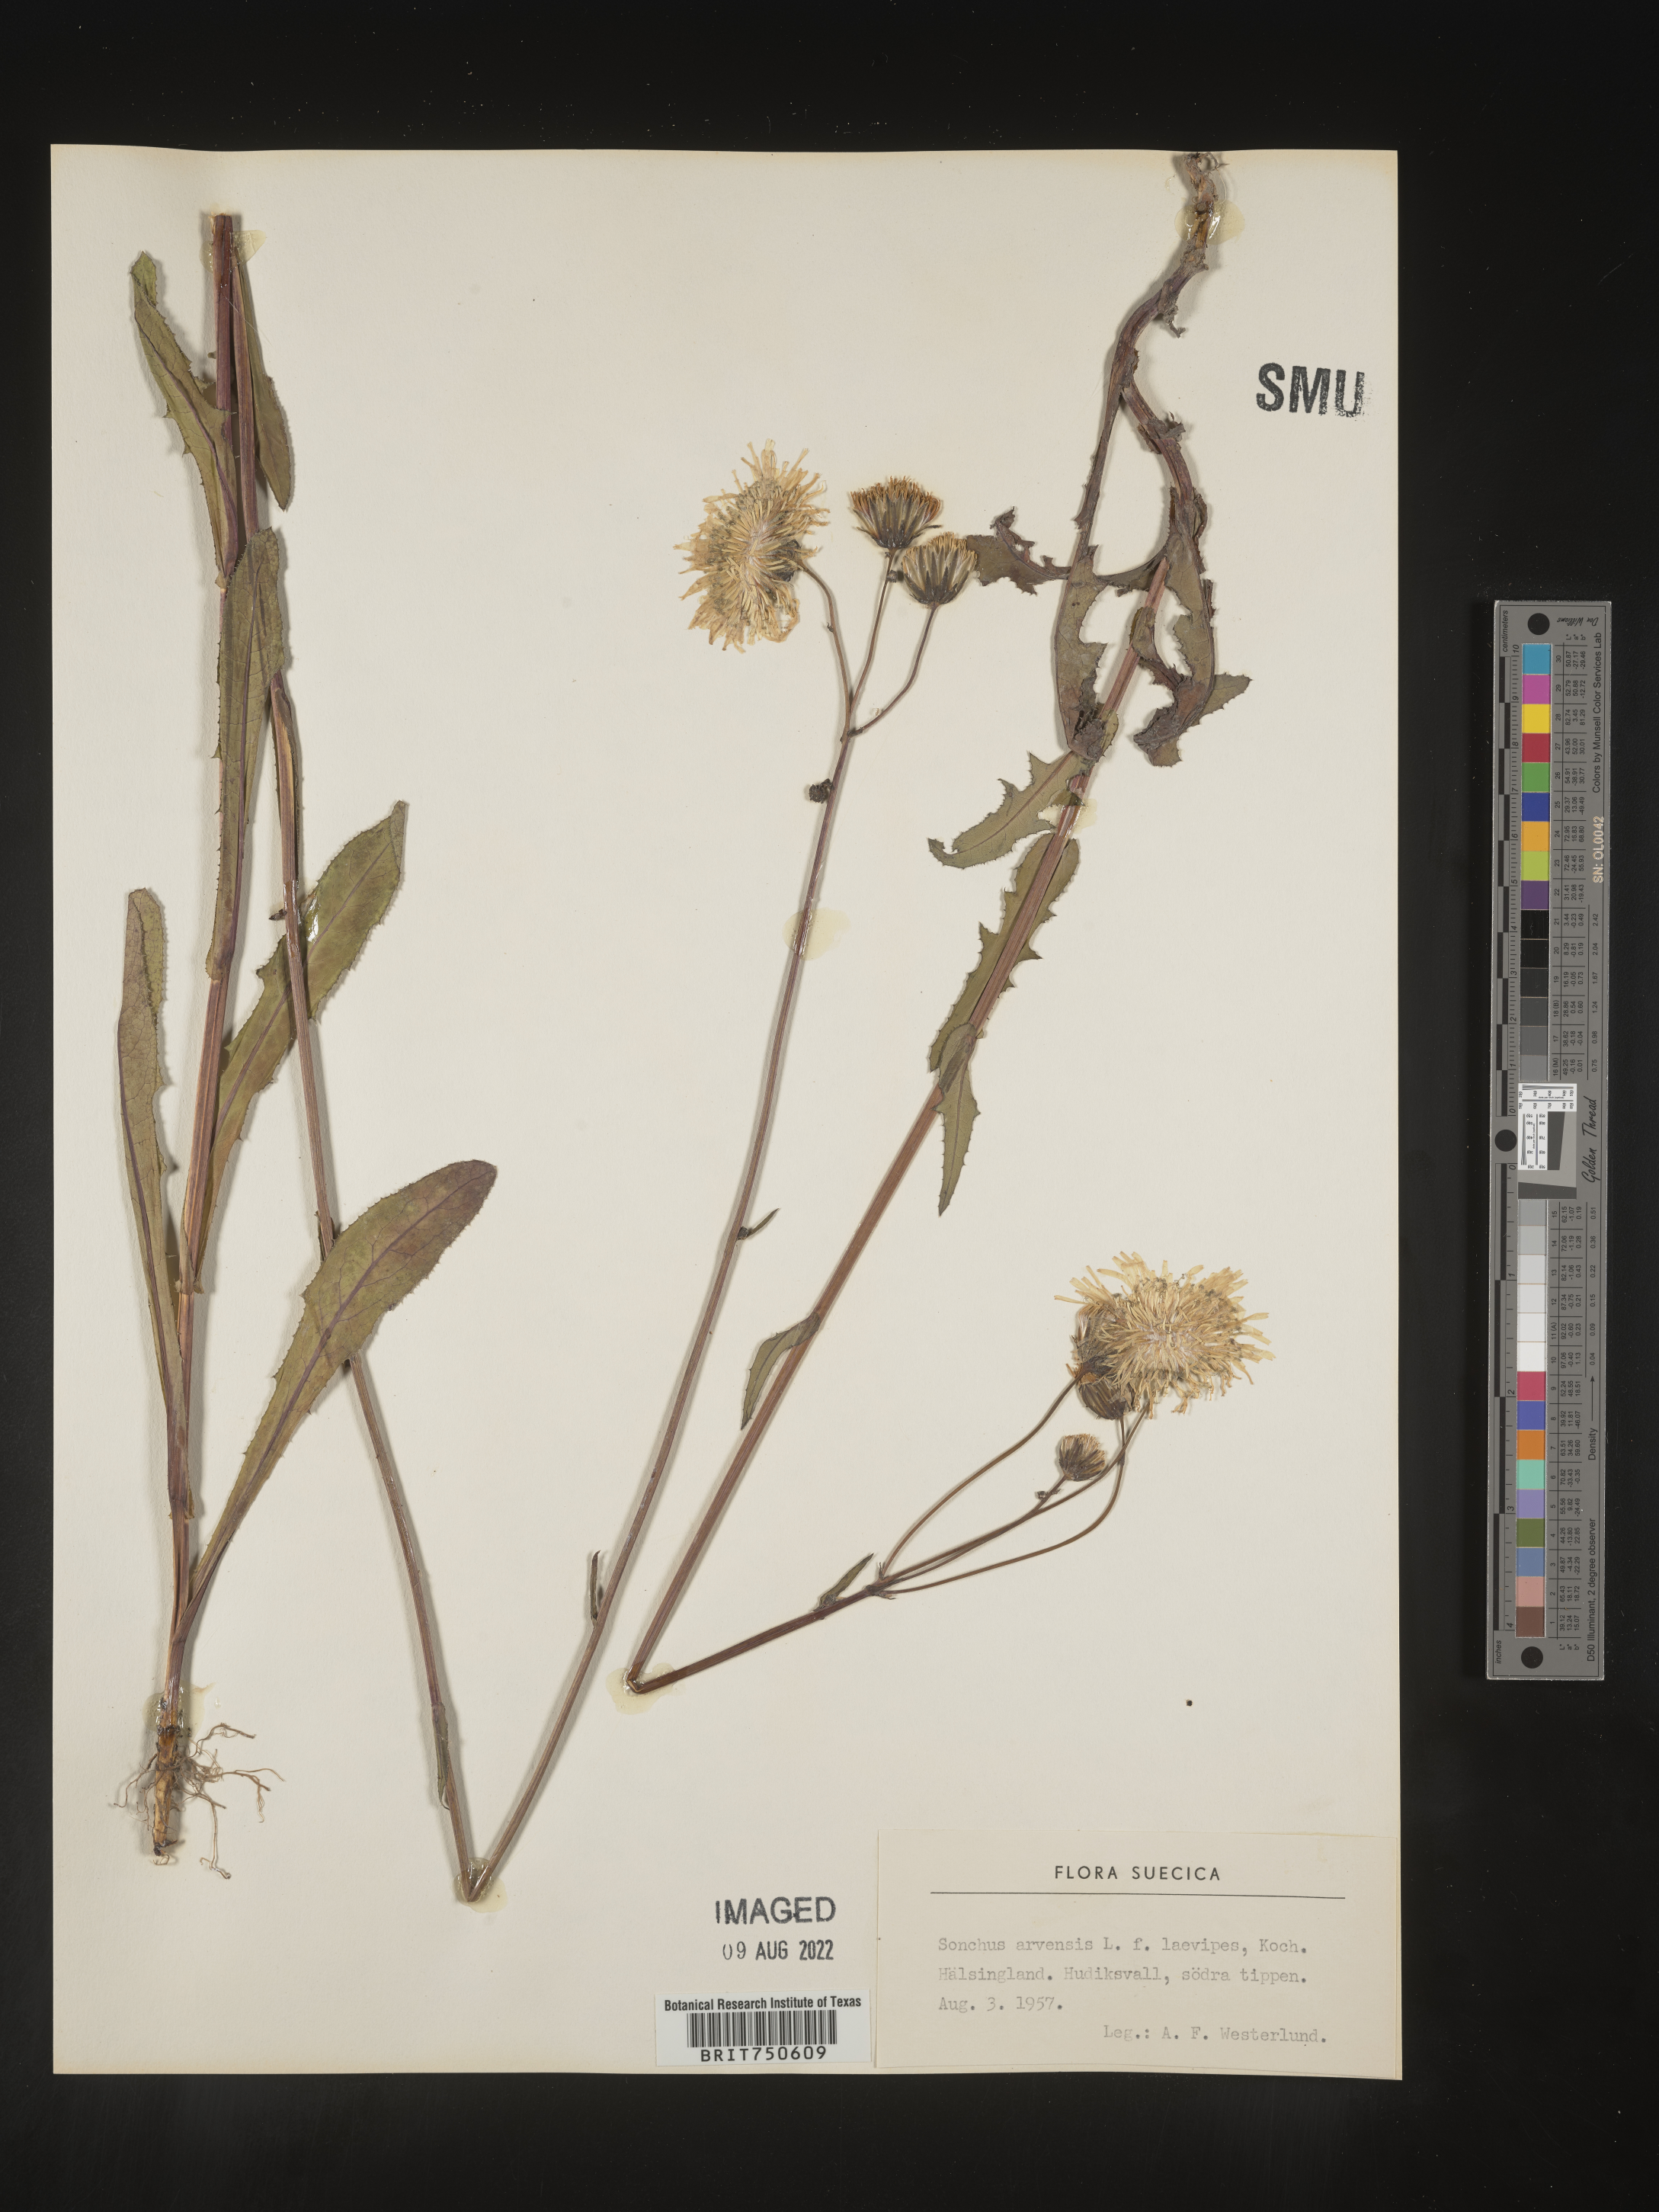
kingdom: Plantae
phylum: Tracheophyta
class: Magnoliopsida
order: Asterales
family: Asteraceae
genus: Sonchus
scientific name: Sonchus
